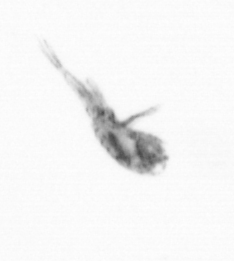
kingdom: Animalia
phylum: Arthropoda
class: Copepoda
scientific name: Copepoda
